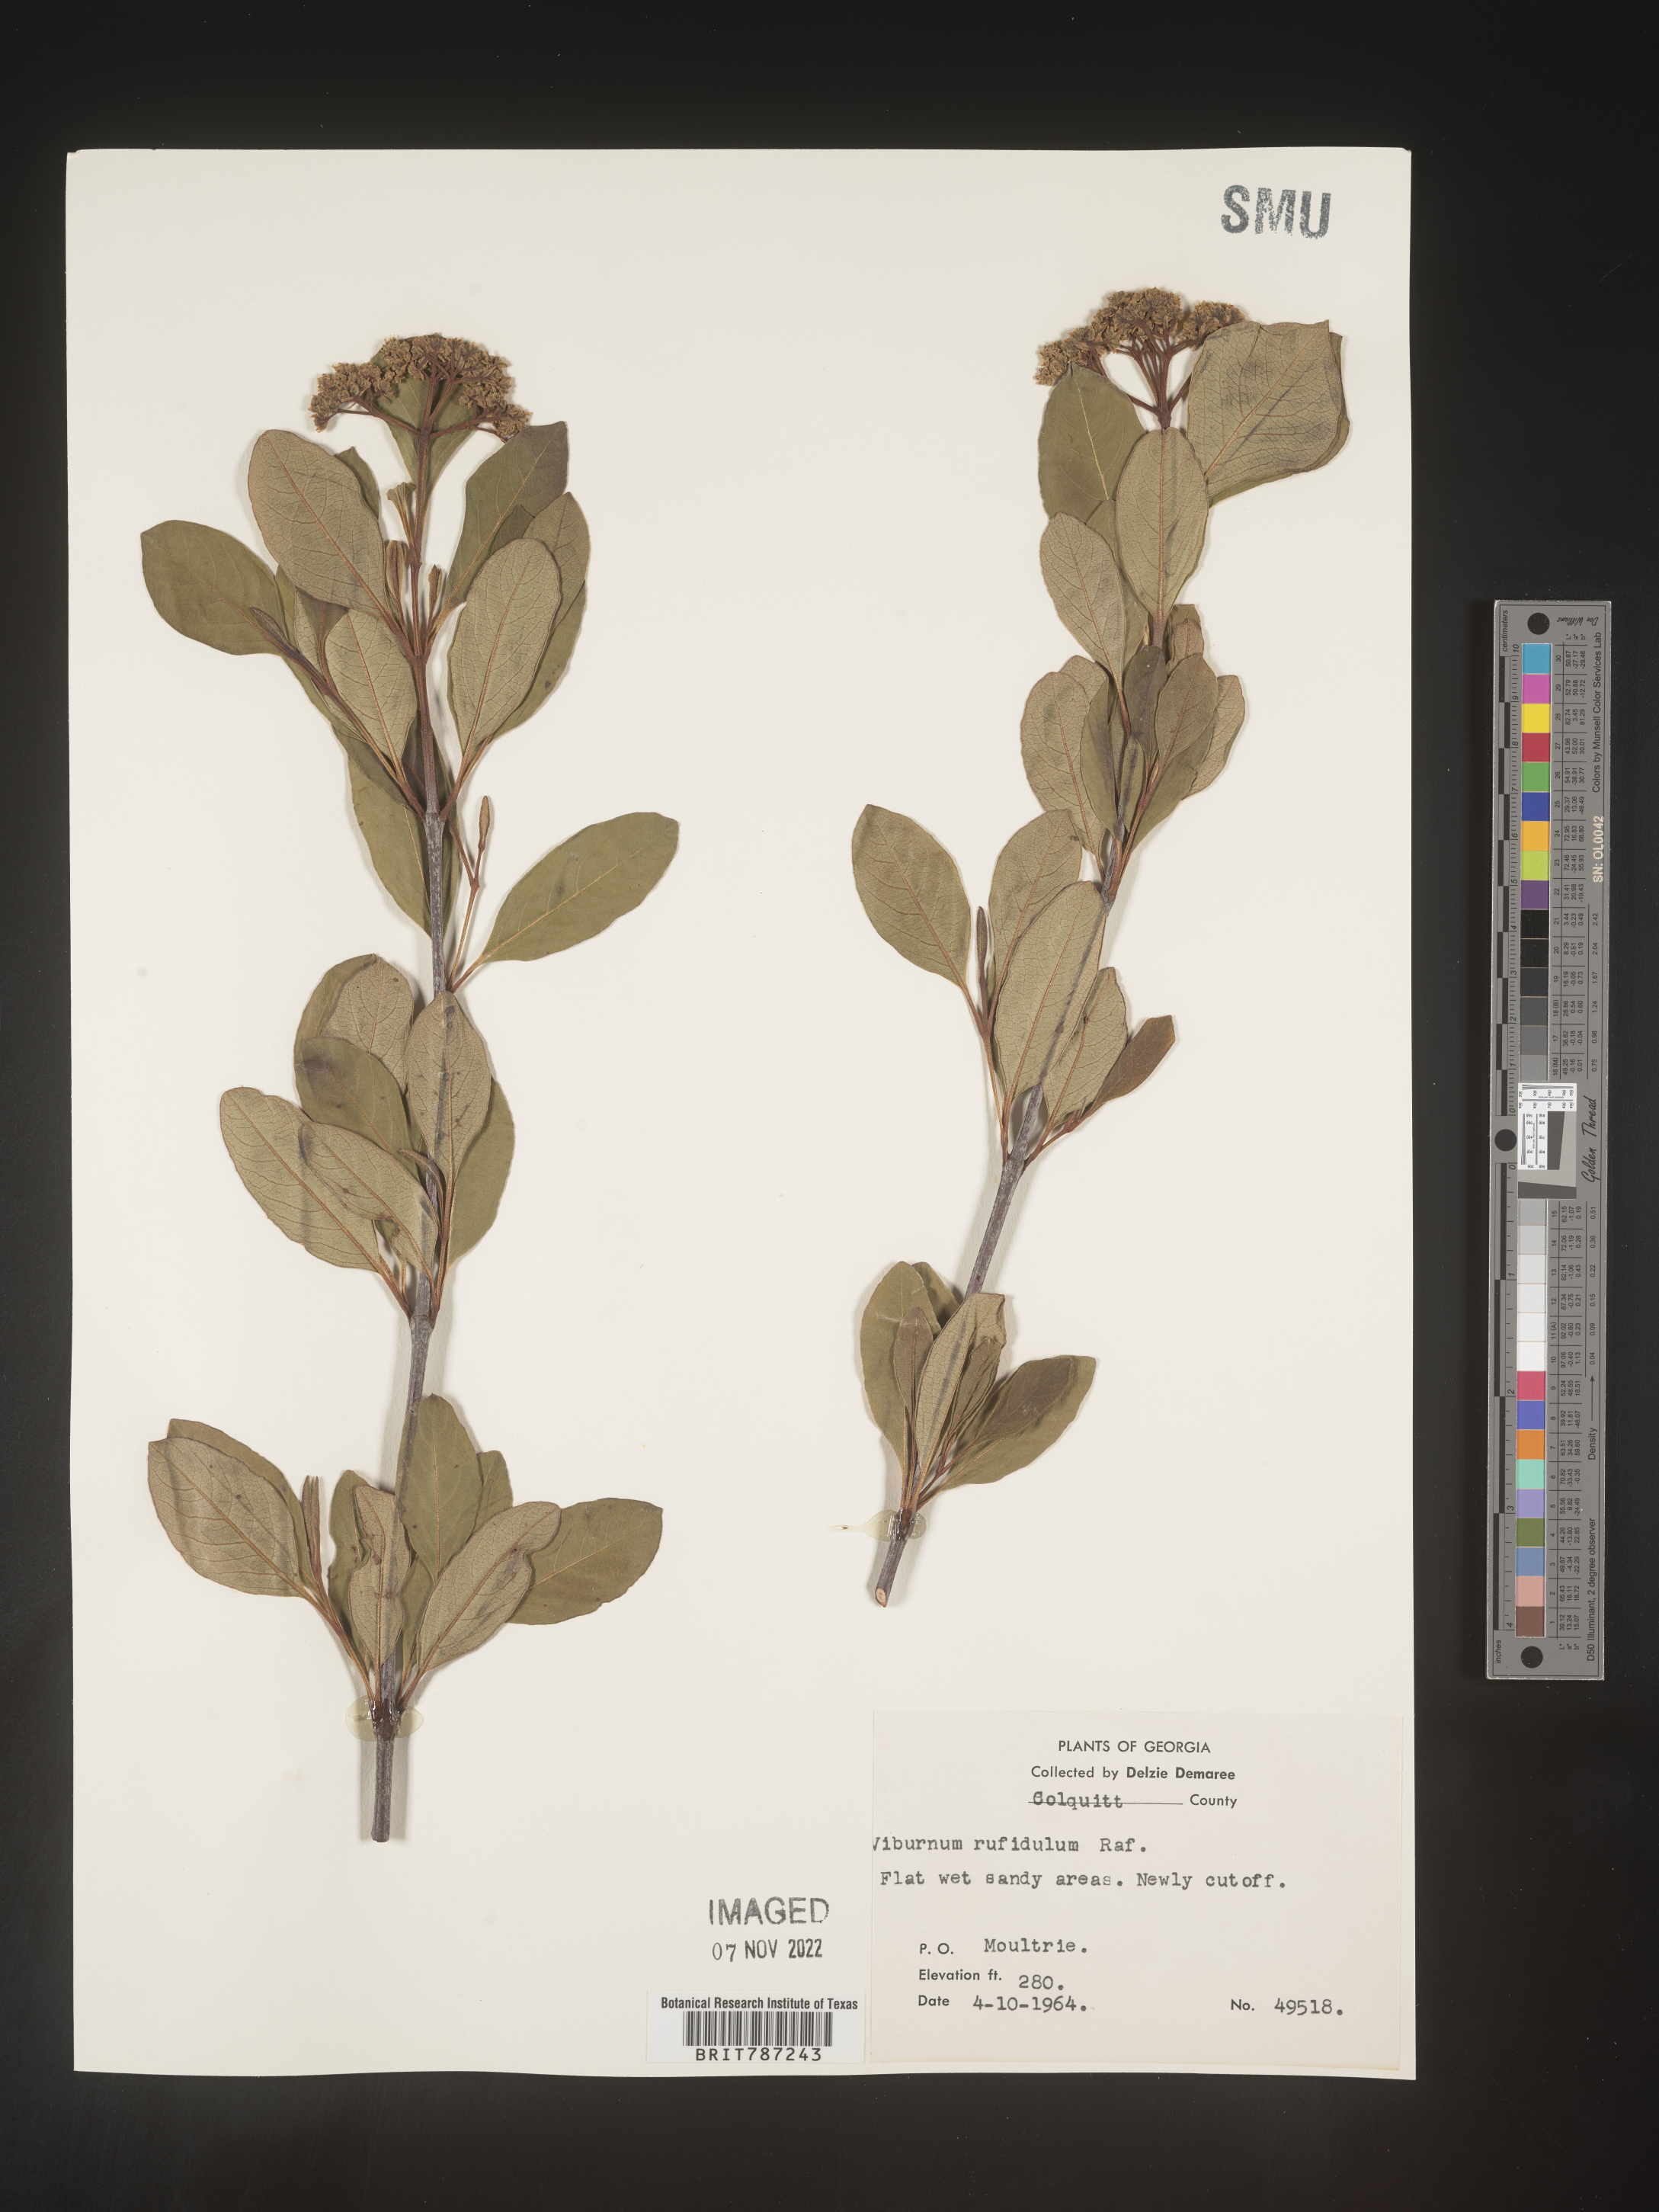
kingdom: Plantae
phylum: Tracheophyta
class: Magnoliopsida
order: Dipsacales
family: Viburnaceae
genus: Viburnum
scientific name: Viburnum rufidulum
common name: Blue haw
